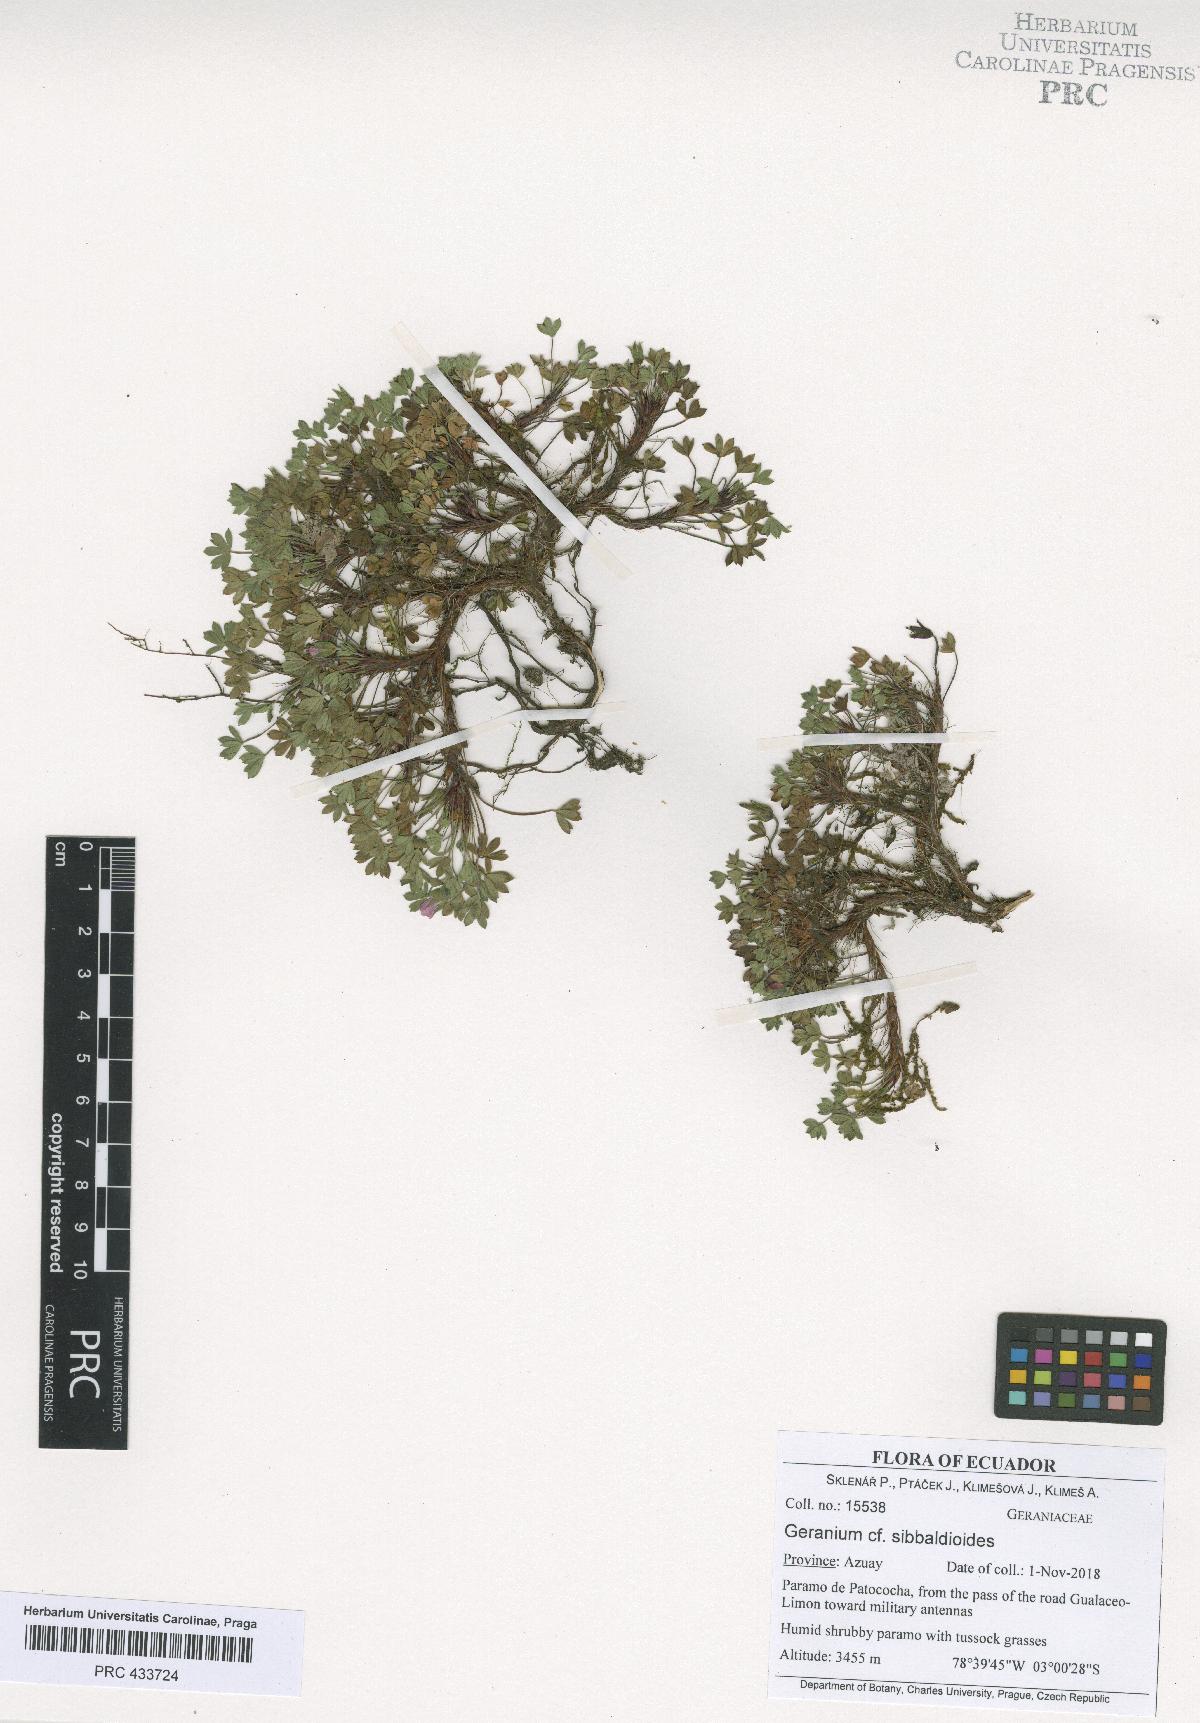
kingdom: Plantae
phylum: Tracheophyta
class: Magnoliopsida
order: Geraniales
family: Geraniaceae
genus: Geranium
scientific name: Geranium sibbaldioides
